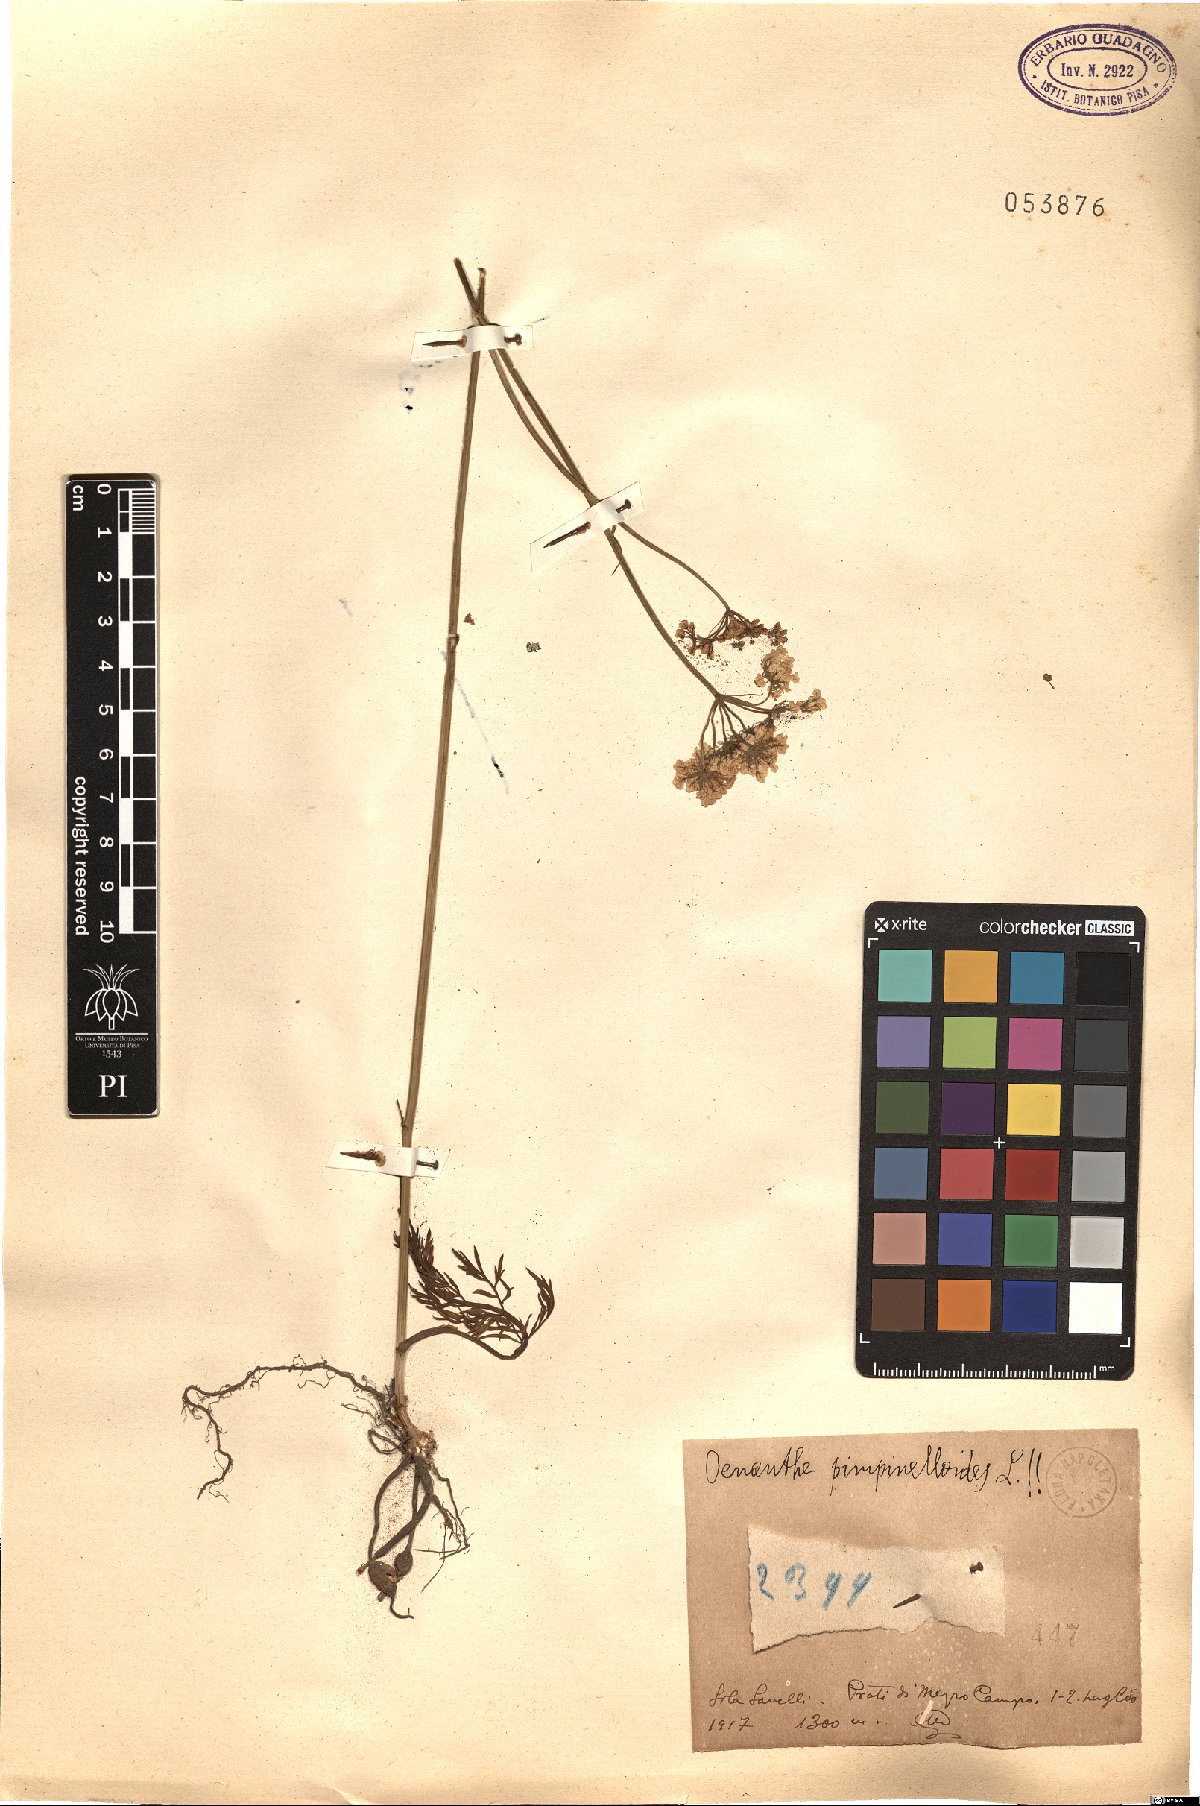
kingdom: Plantae
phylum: Tracheophyta
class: Magnoliopsida
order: Apiales
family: Apiaceae
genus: Oenanthe
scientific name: Oenanthe pimpinelloides
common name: Corky-fruited water-dropwort
